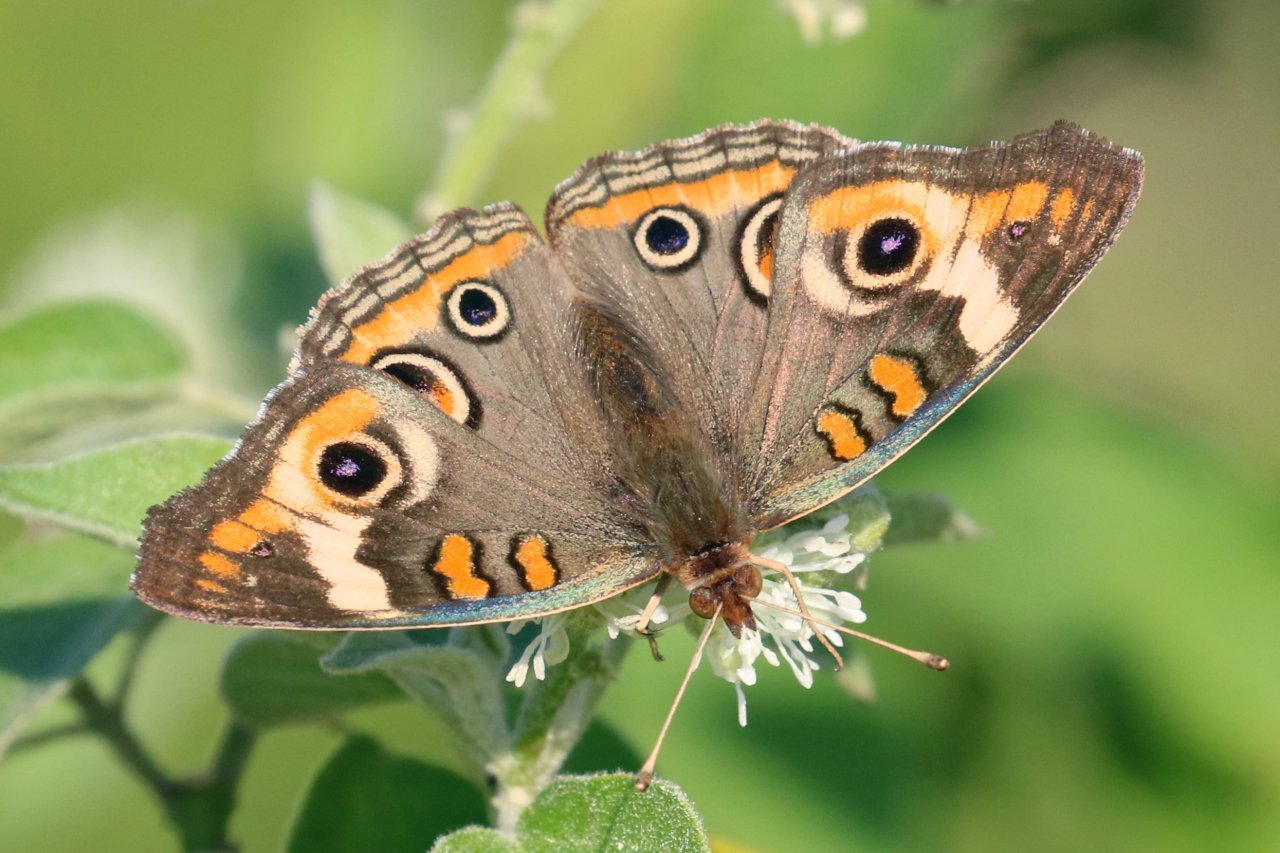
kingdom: Animalia
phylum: Arthropoda
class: Insecta
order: Lepidoptera
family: Nymphalidae
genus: Junonia
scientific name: Junonia coenia
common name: Common Buckeye
